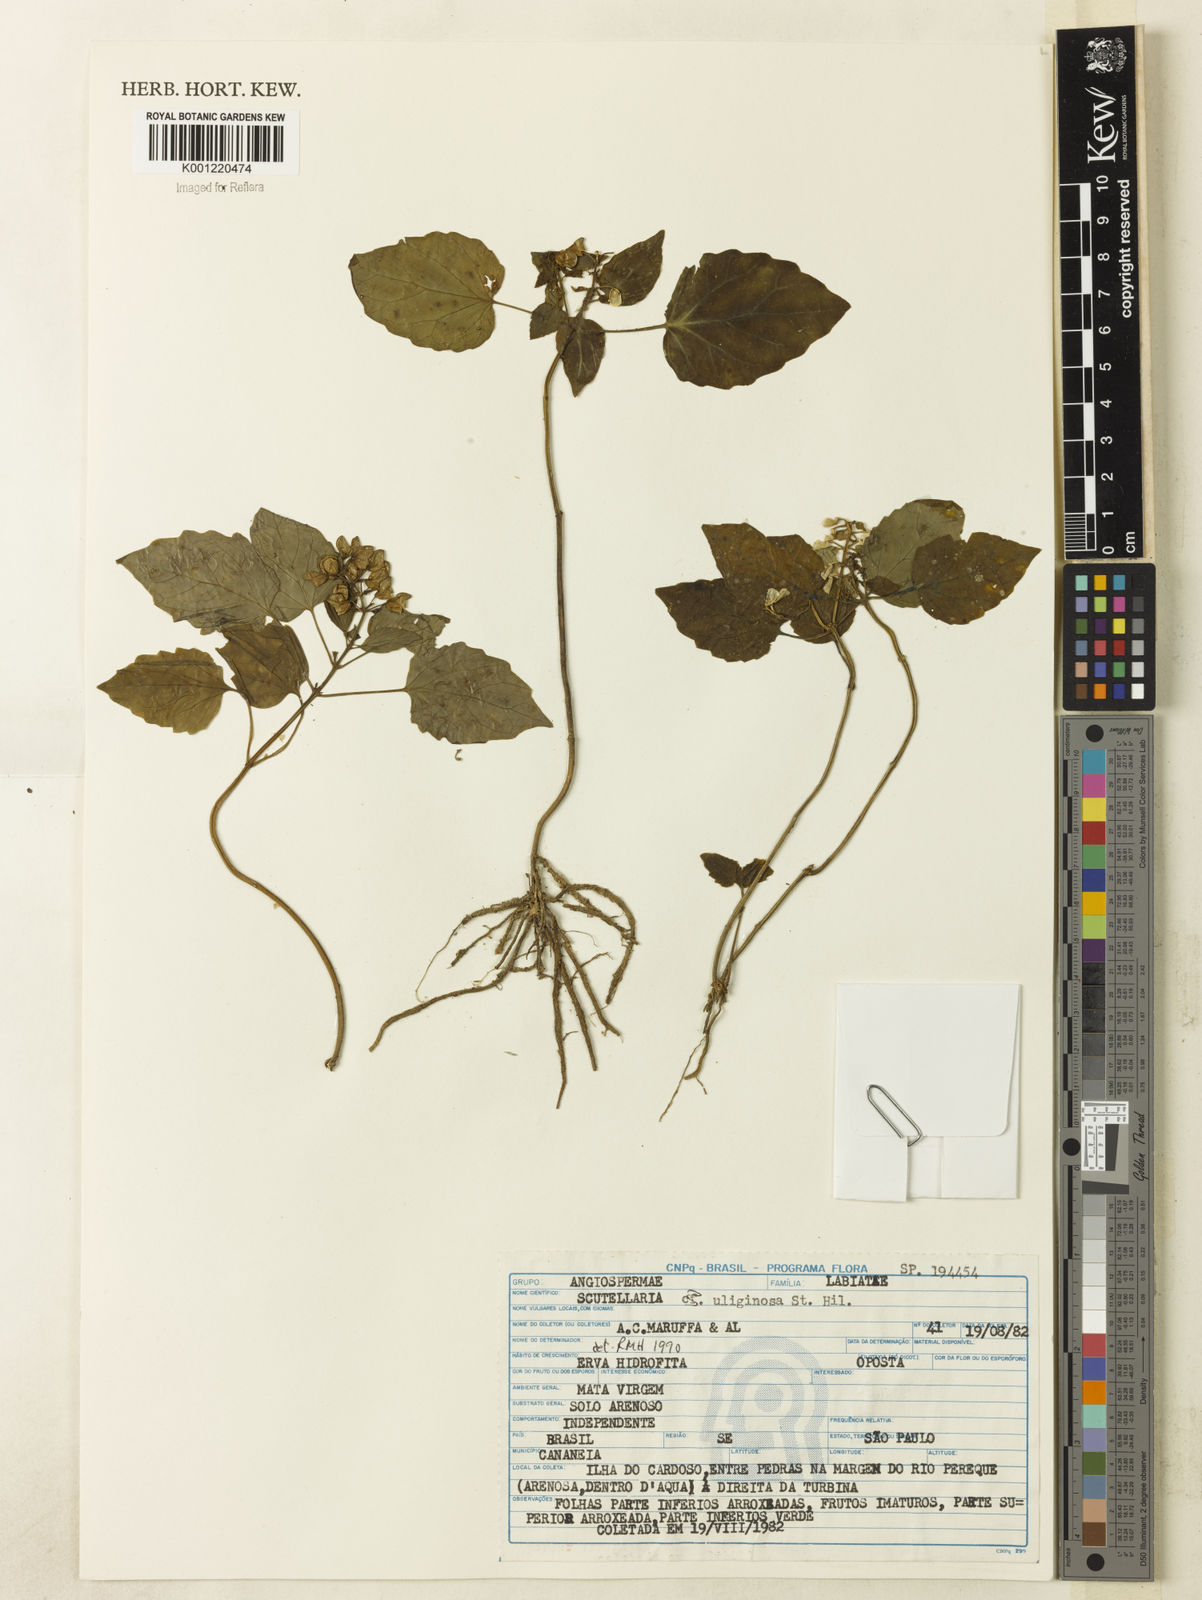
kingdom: Plantae
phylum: Tracheophyta
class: Magnoliopsida
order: Lamiales
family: Lamiaceae
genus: Scutellaria
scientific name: Scutellaria uliginosa
